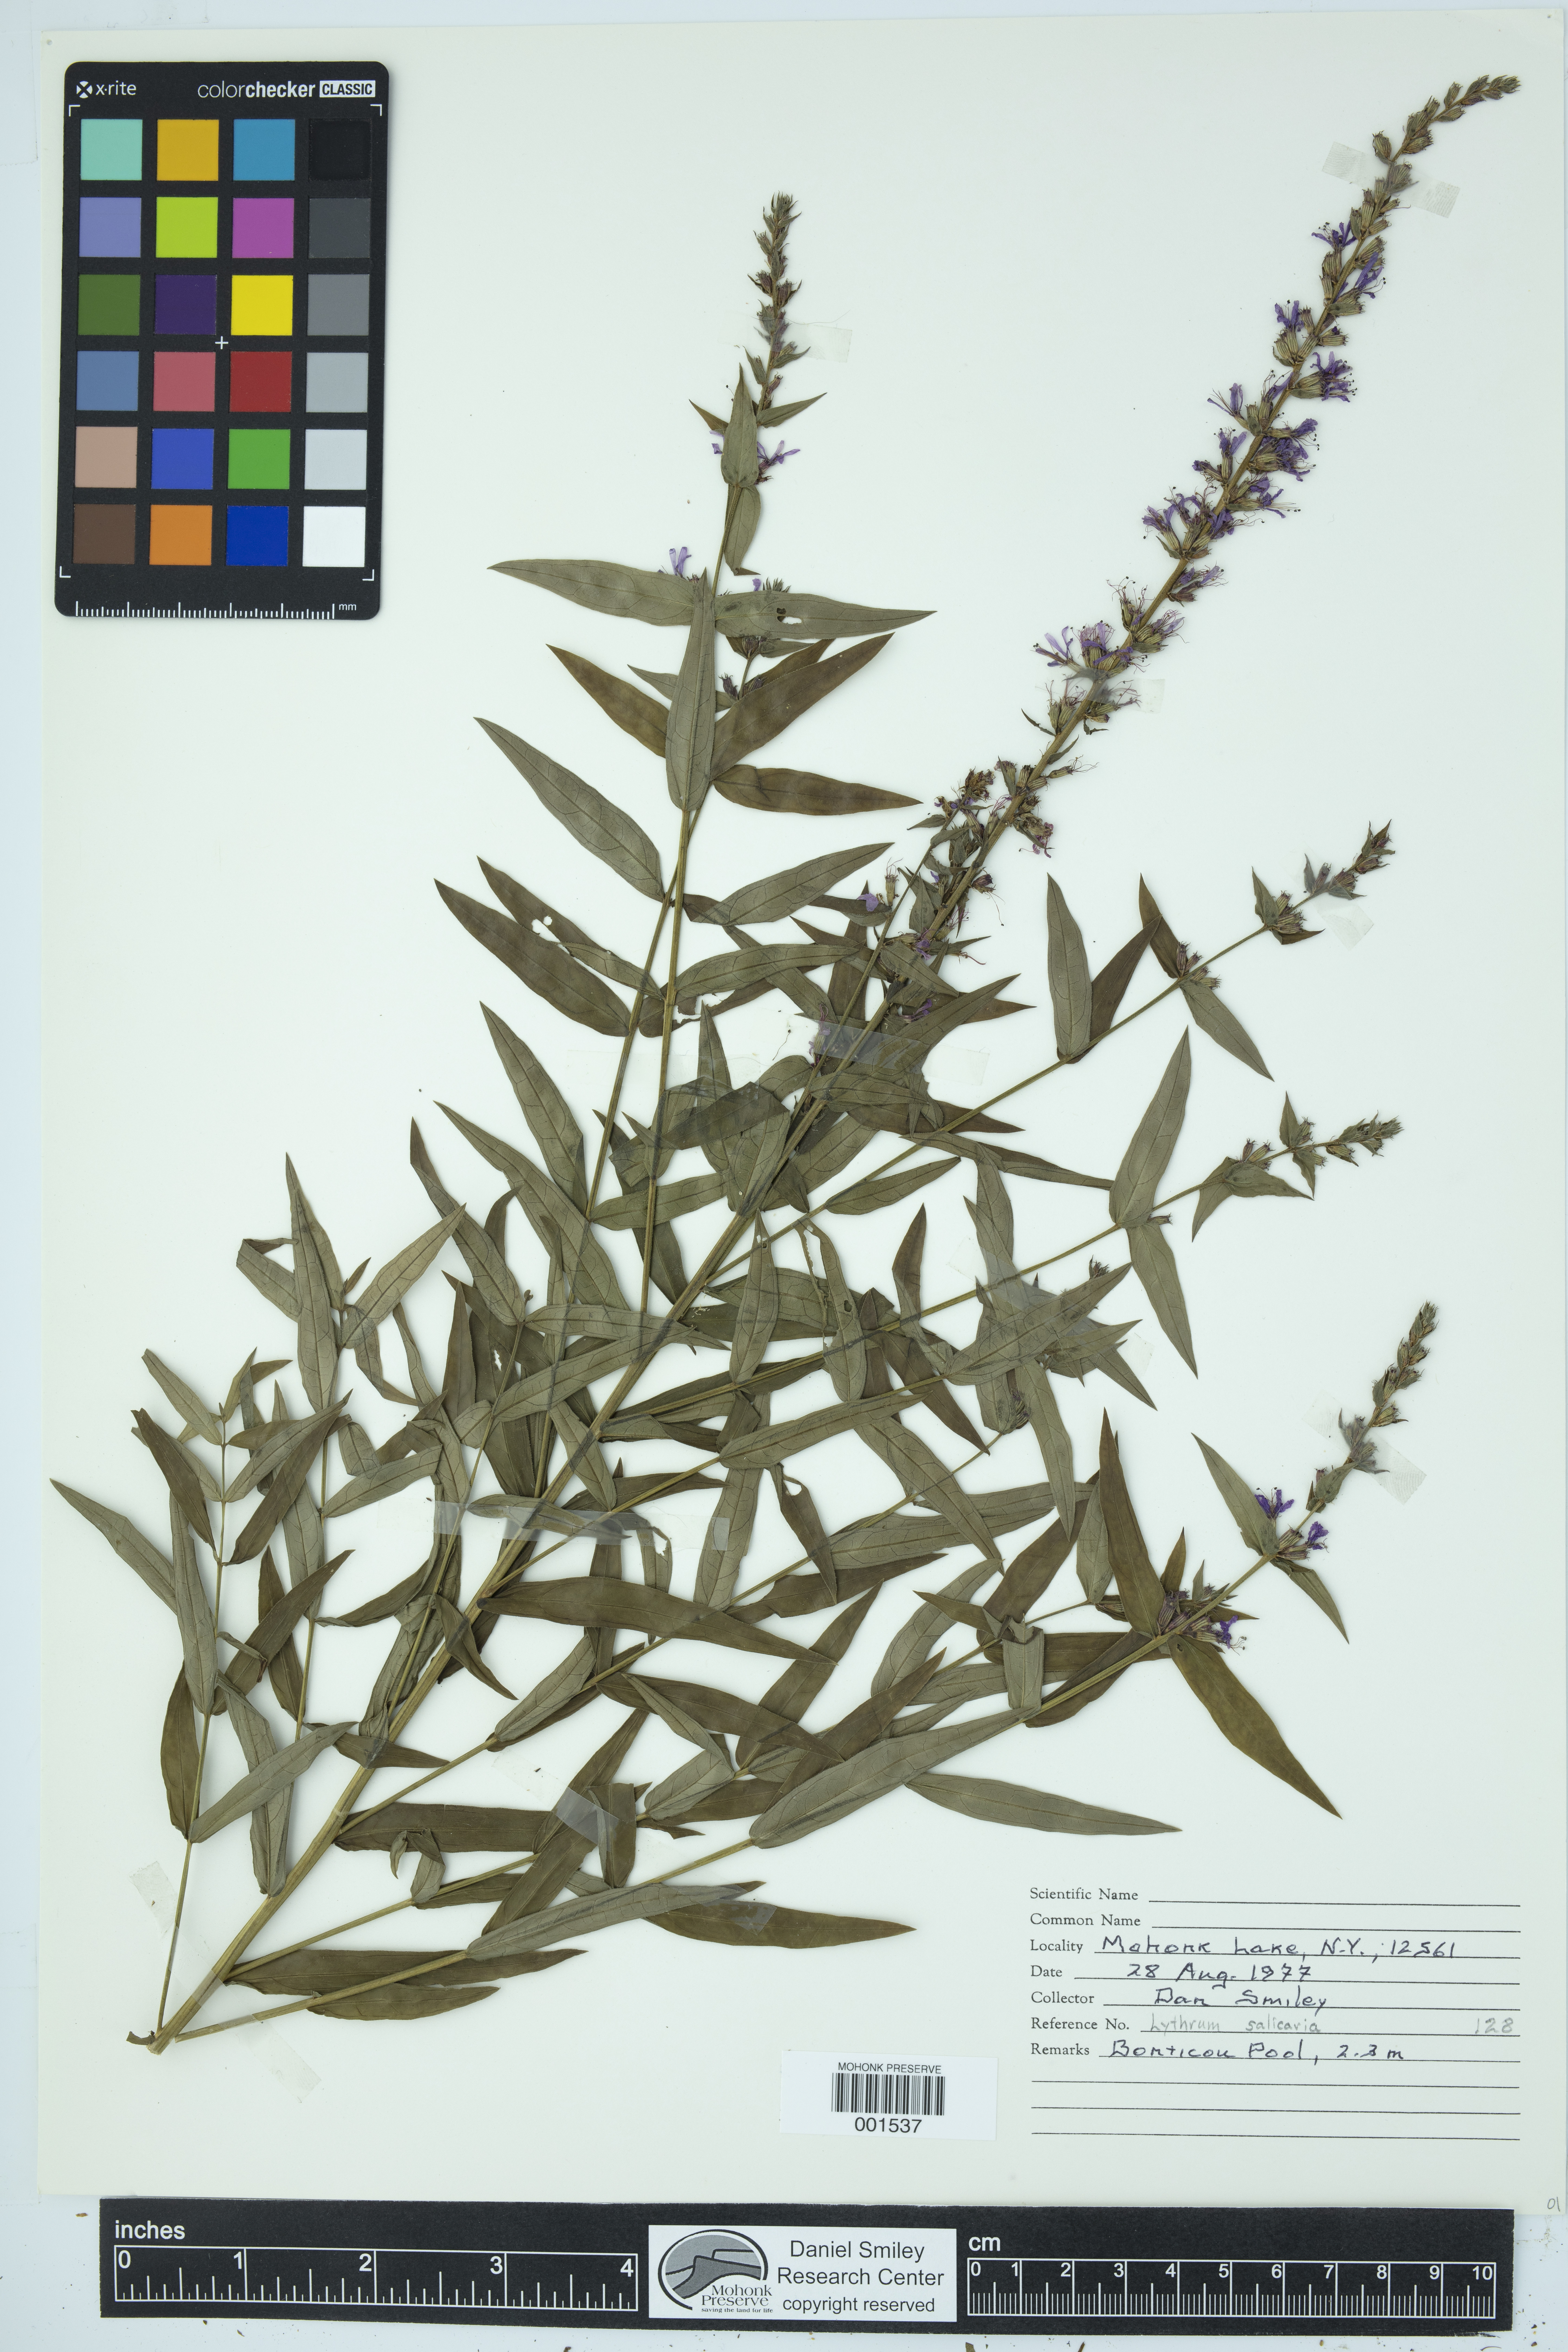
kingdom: Plantae
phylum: Tracheophyta
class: Magnoliopsida
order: Myrtales
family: Lythraceae
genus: Lythrum
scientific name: Lythrum salicaria
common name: Purple loosestrife
